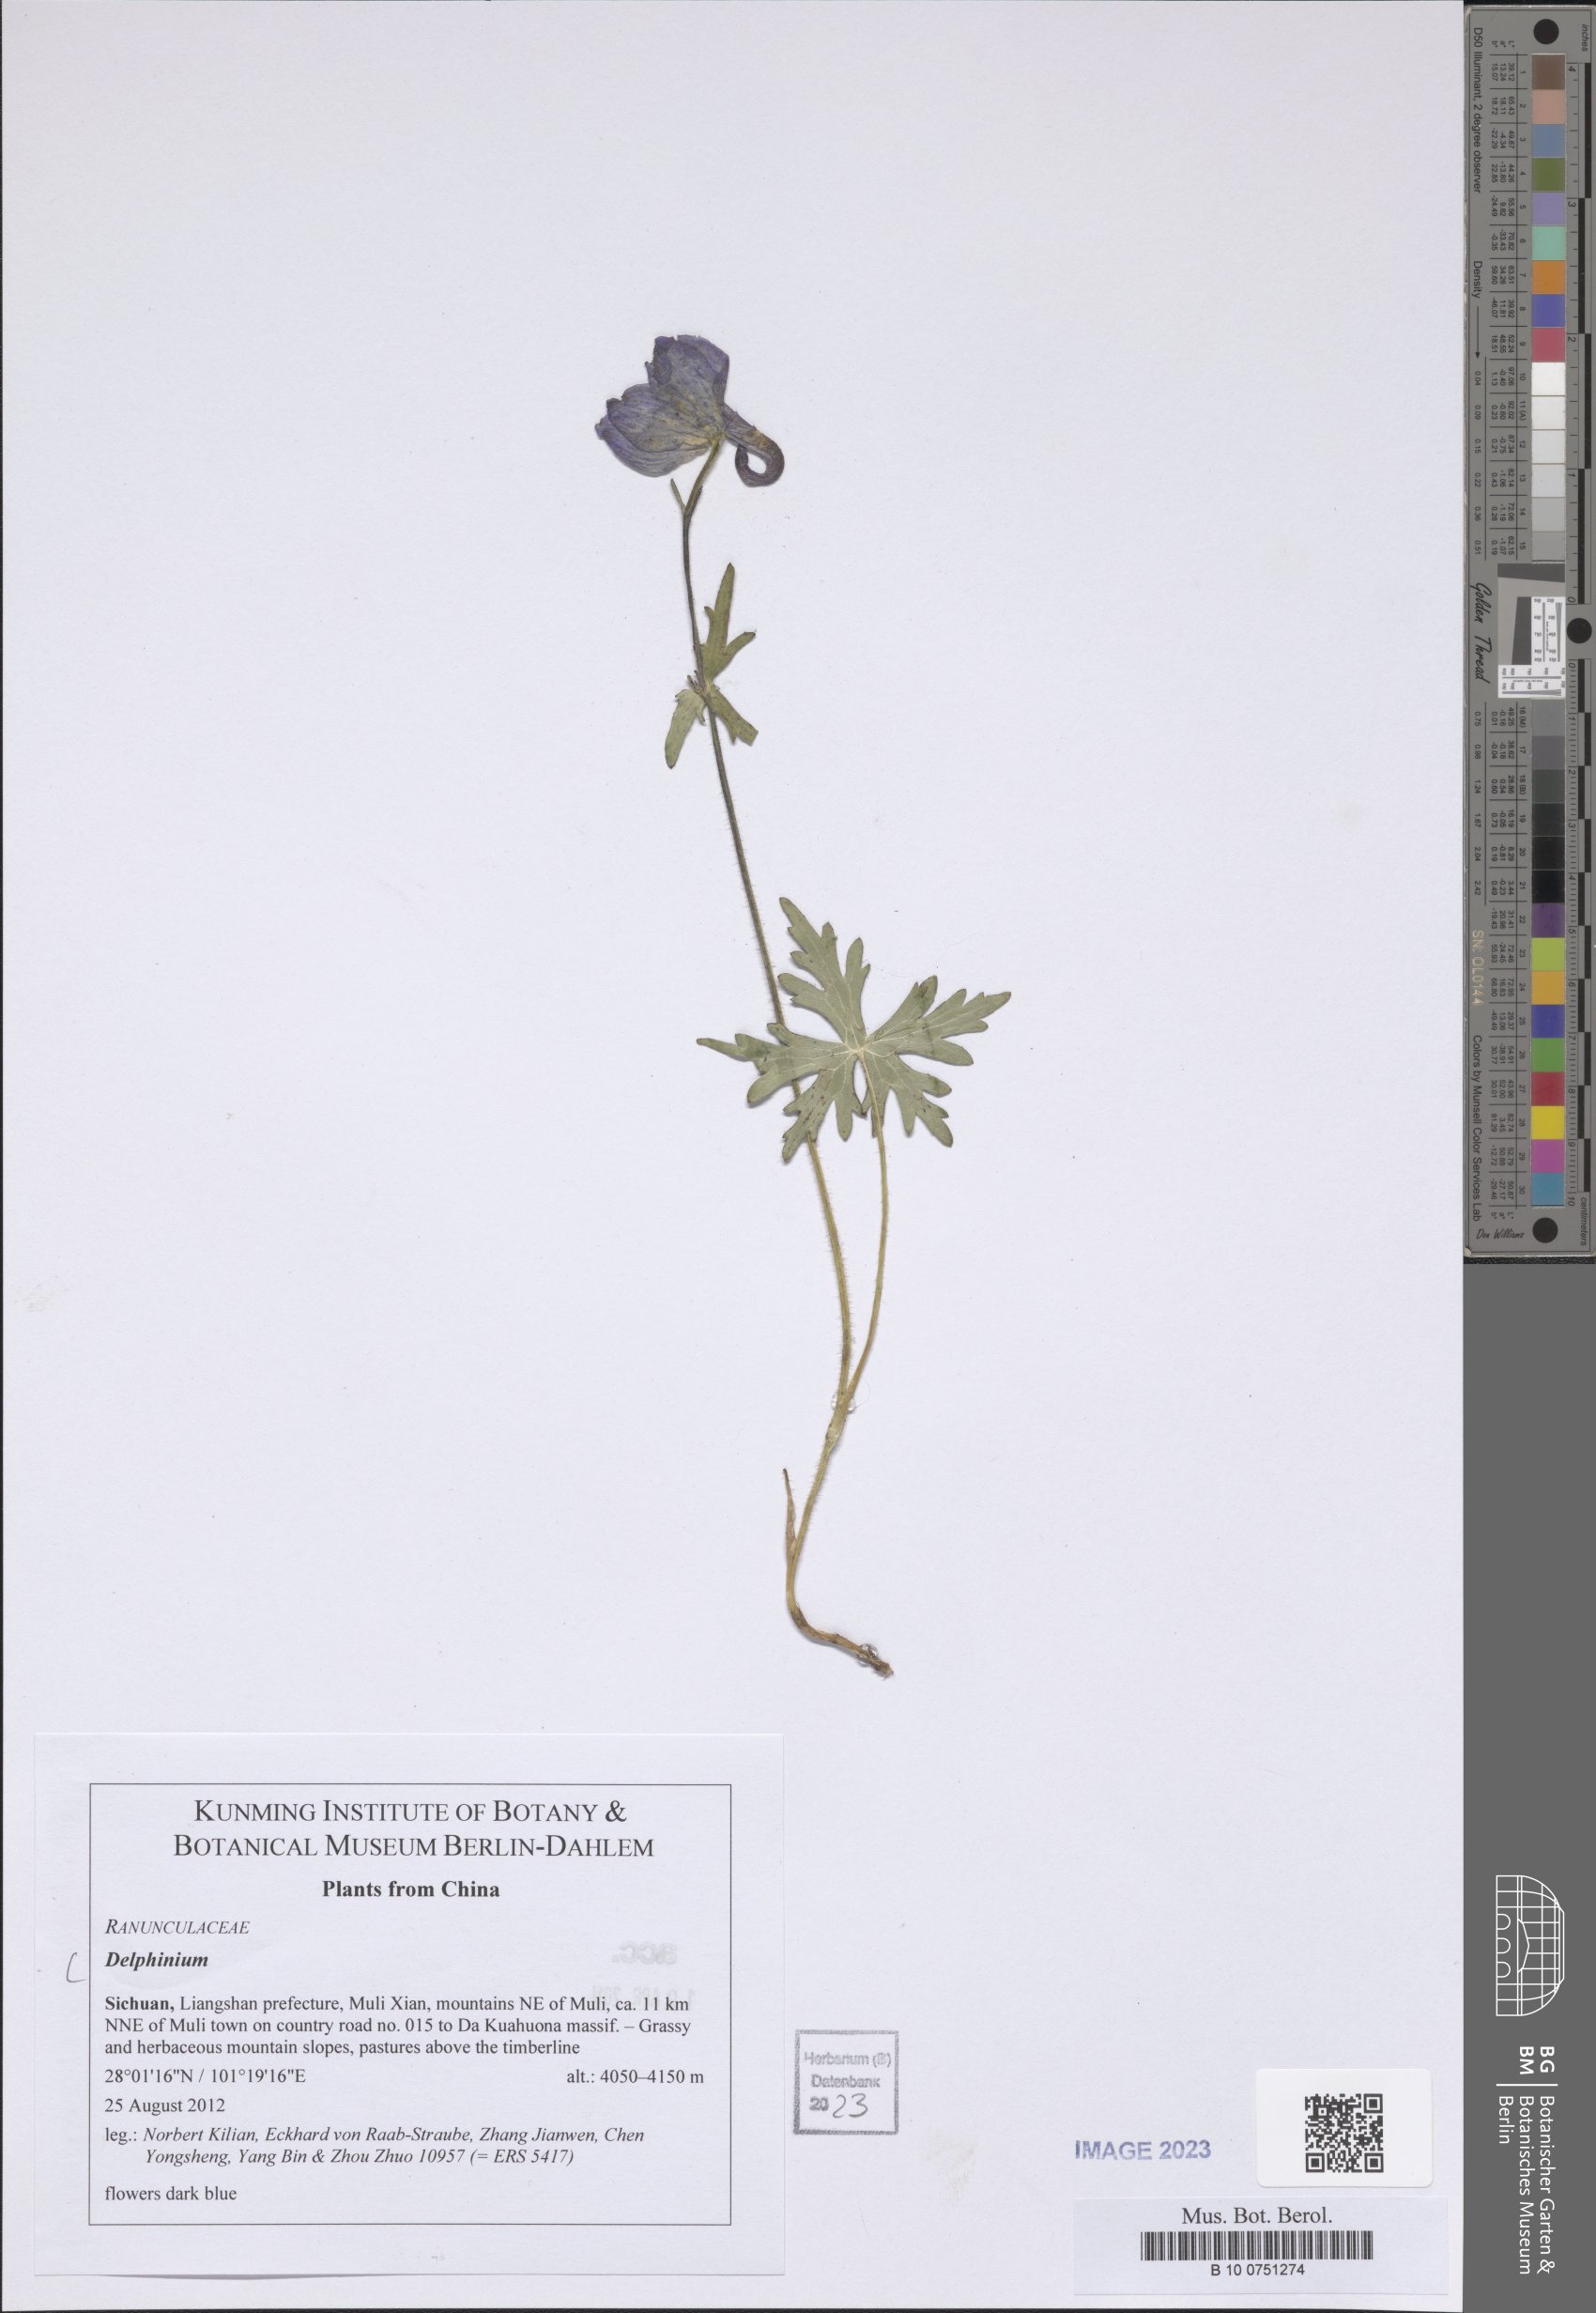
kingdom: Plantae
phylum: Tracheophyta
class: Magnoliopsida
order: Ranunculales
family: Ranunculaceae
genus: Delphinium
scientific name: Delphinium
